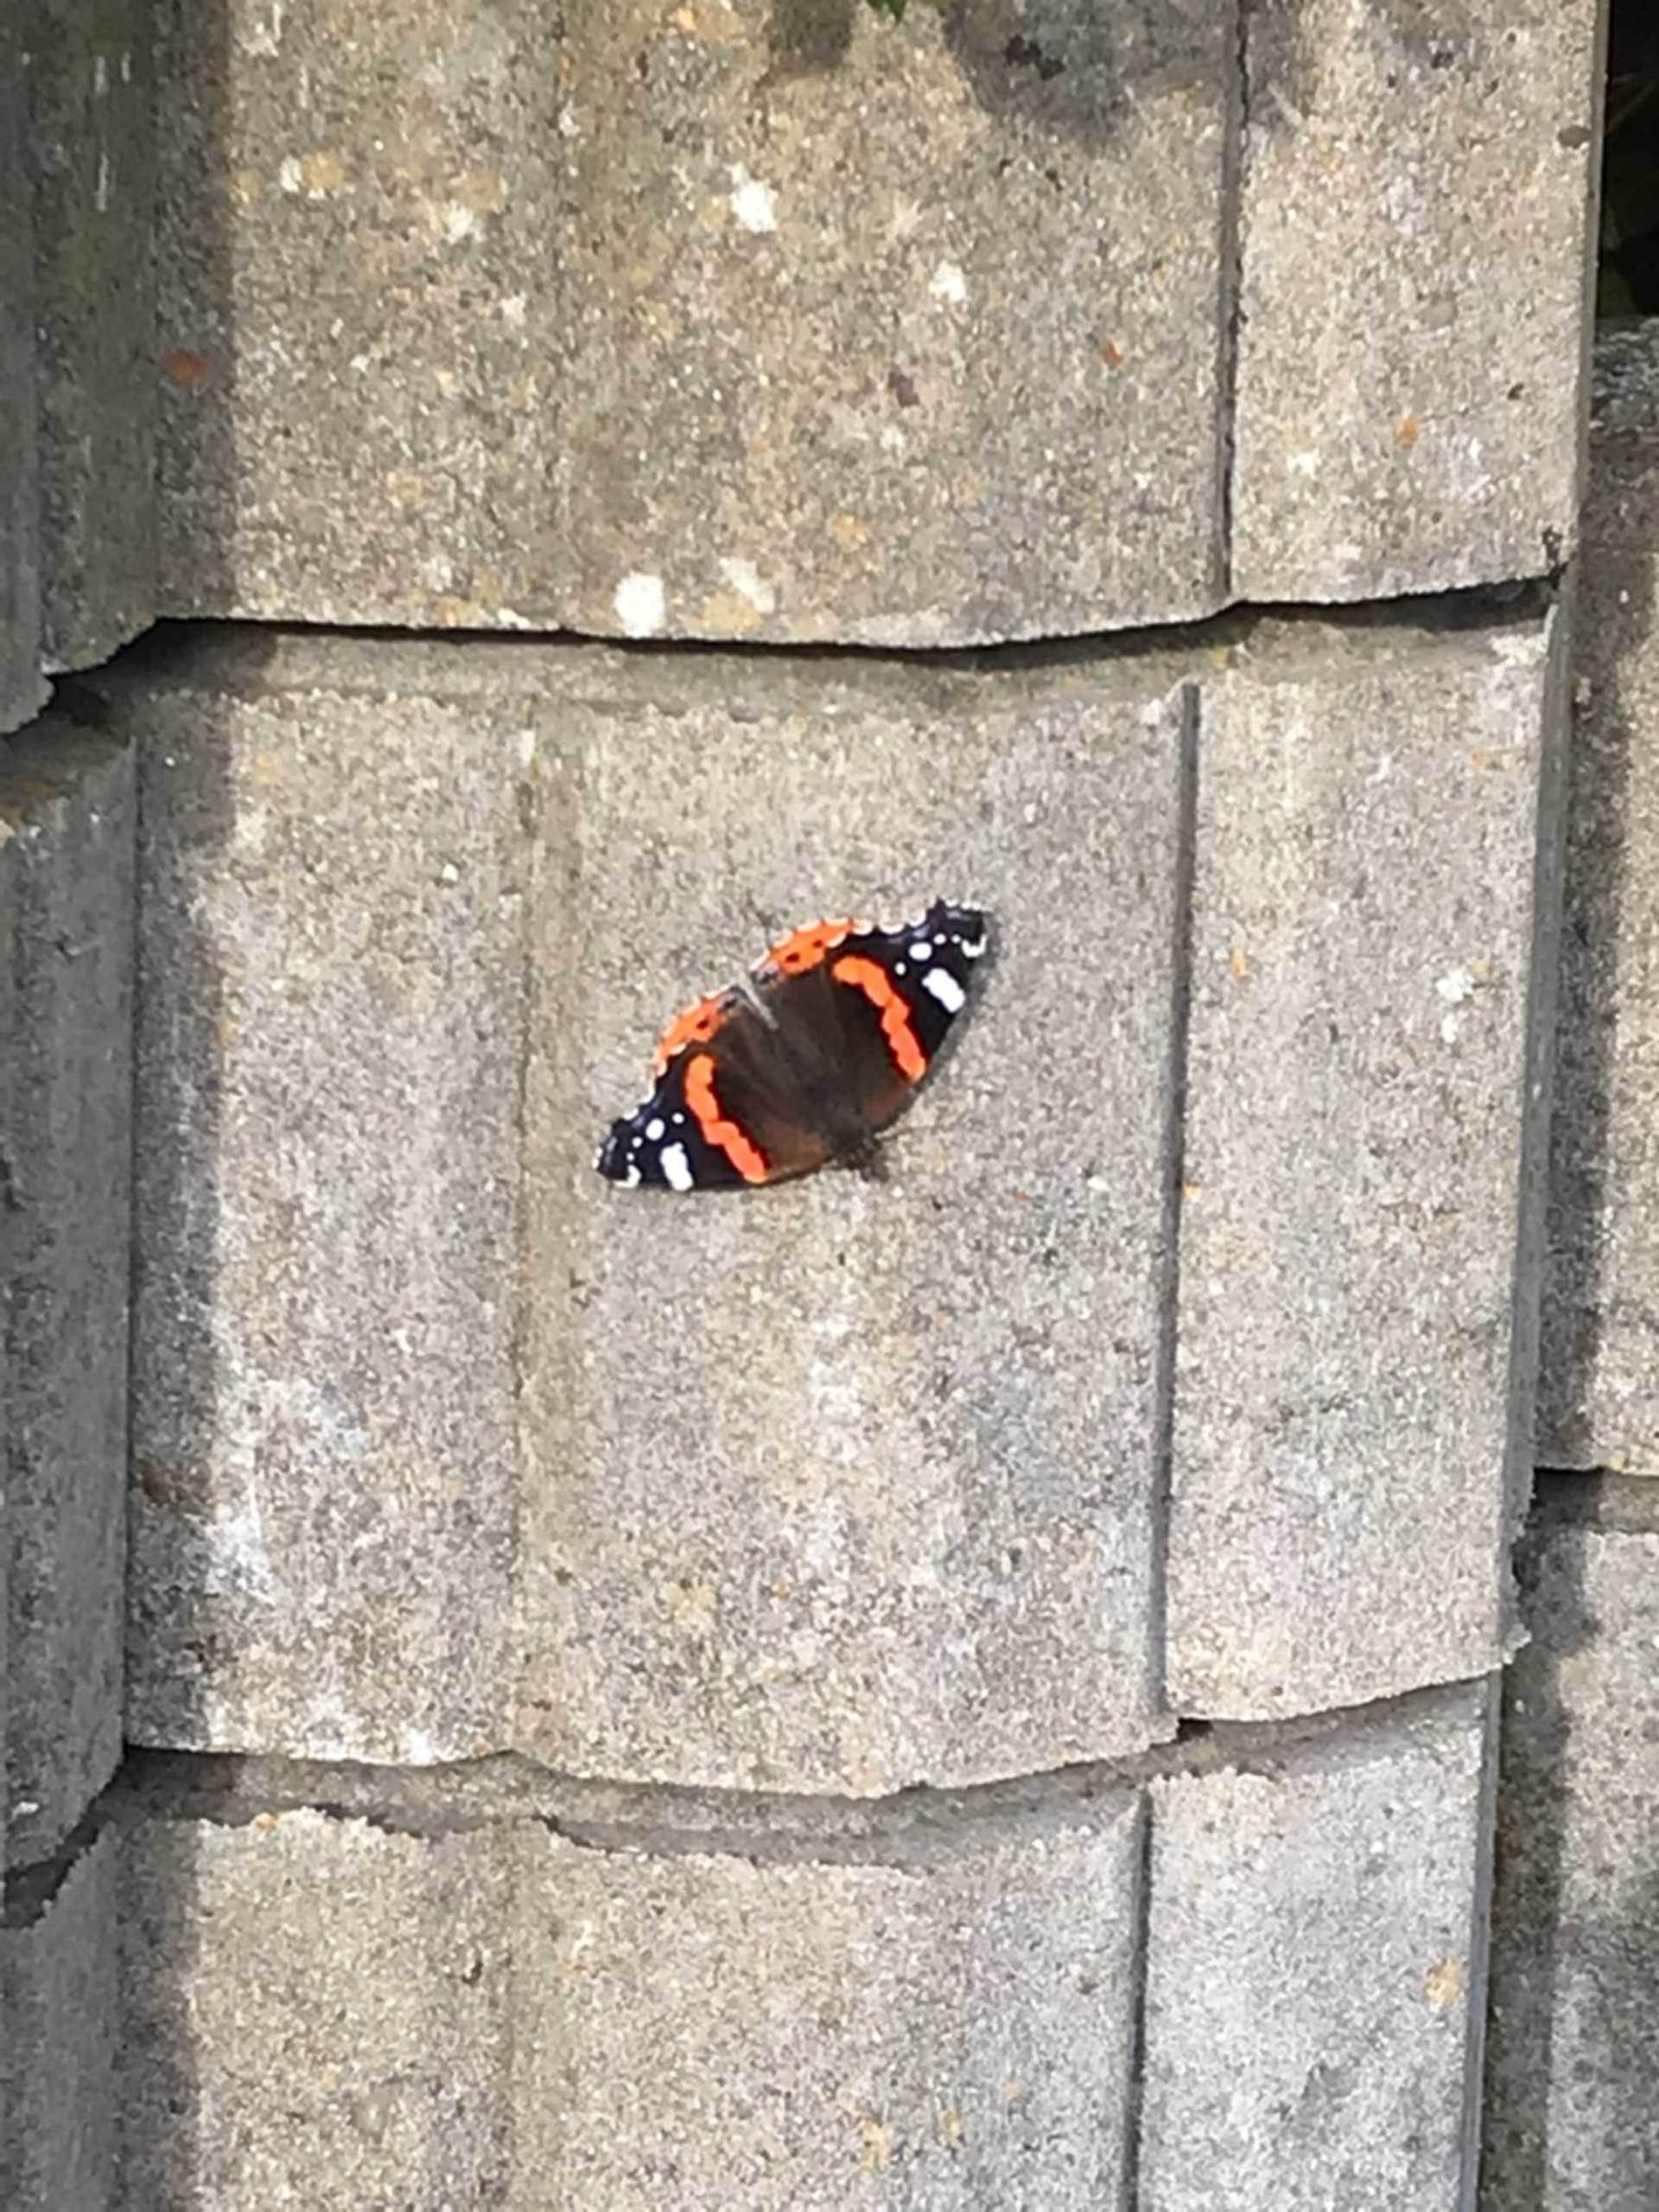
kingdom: Animalia
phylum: Arthropoda
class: Insecta
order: Lepidoptera
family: Nymphalidae
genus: Vanessa
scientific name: Vanessa atalanta
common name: Admiral
